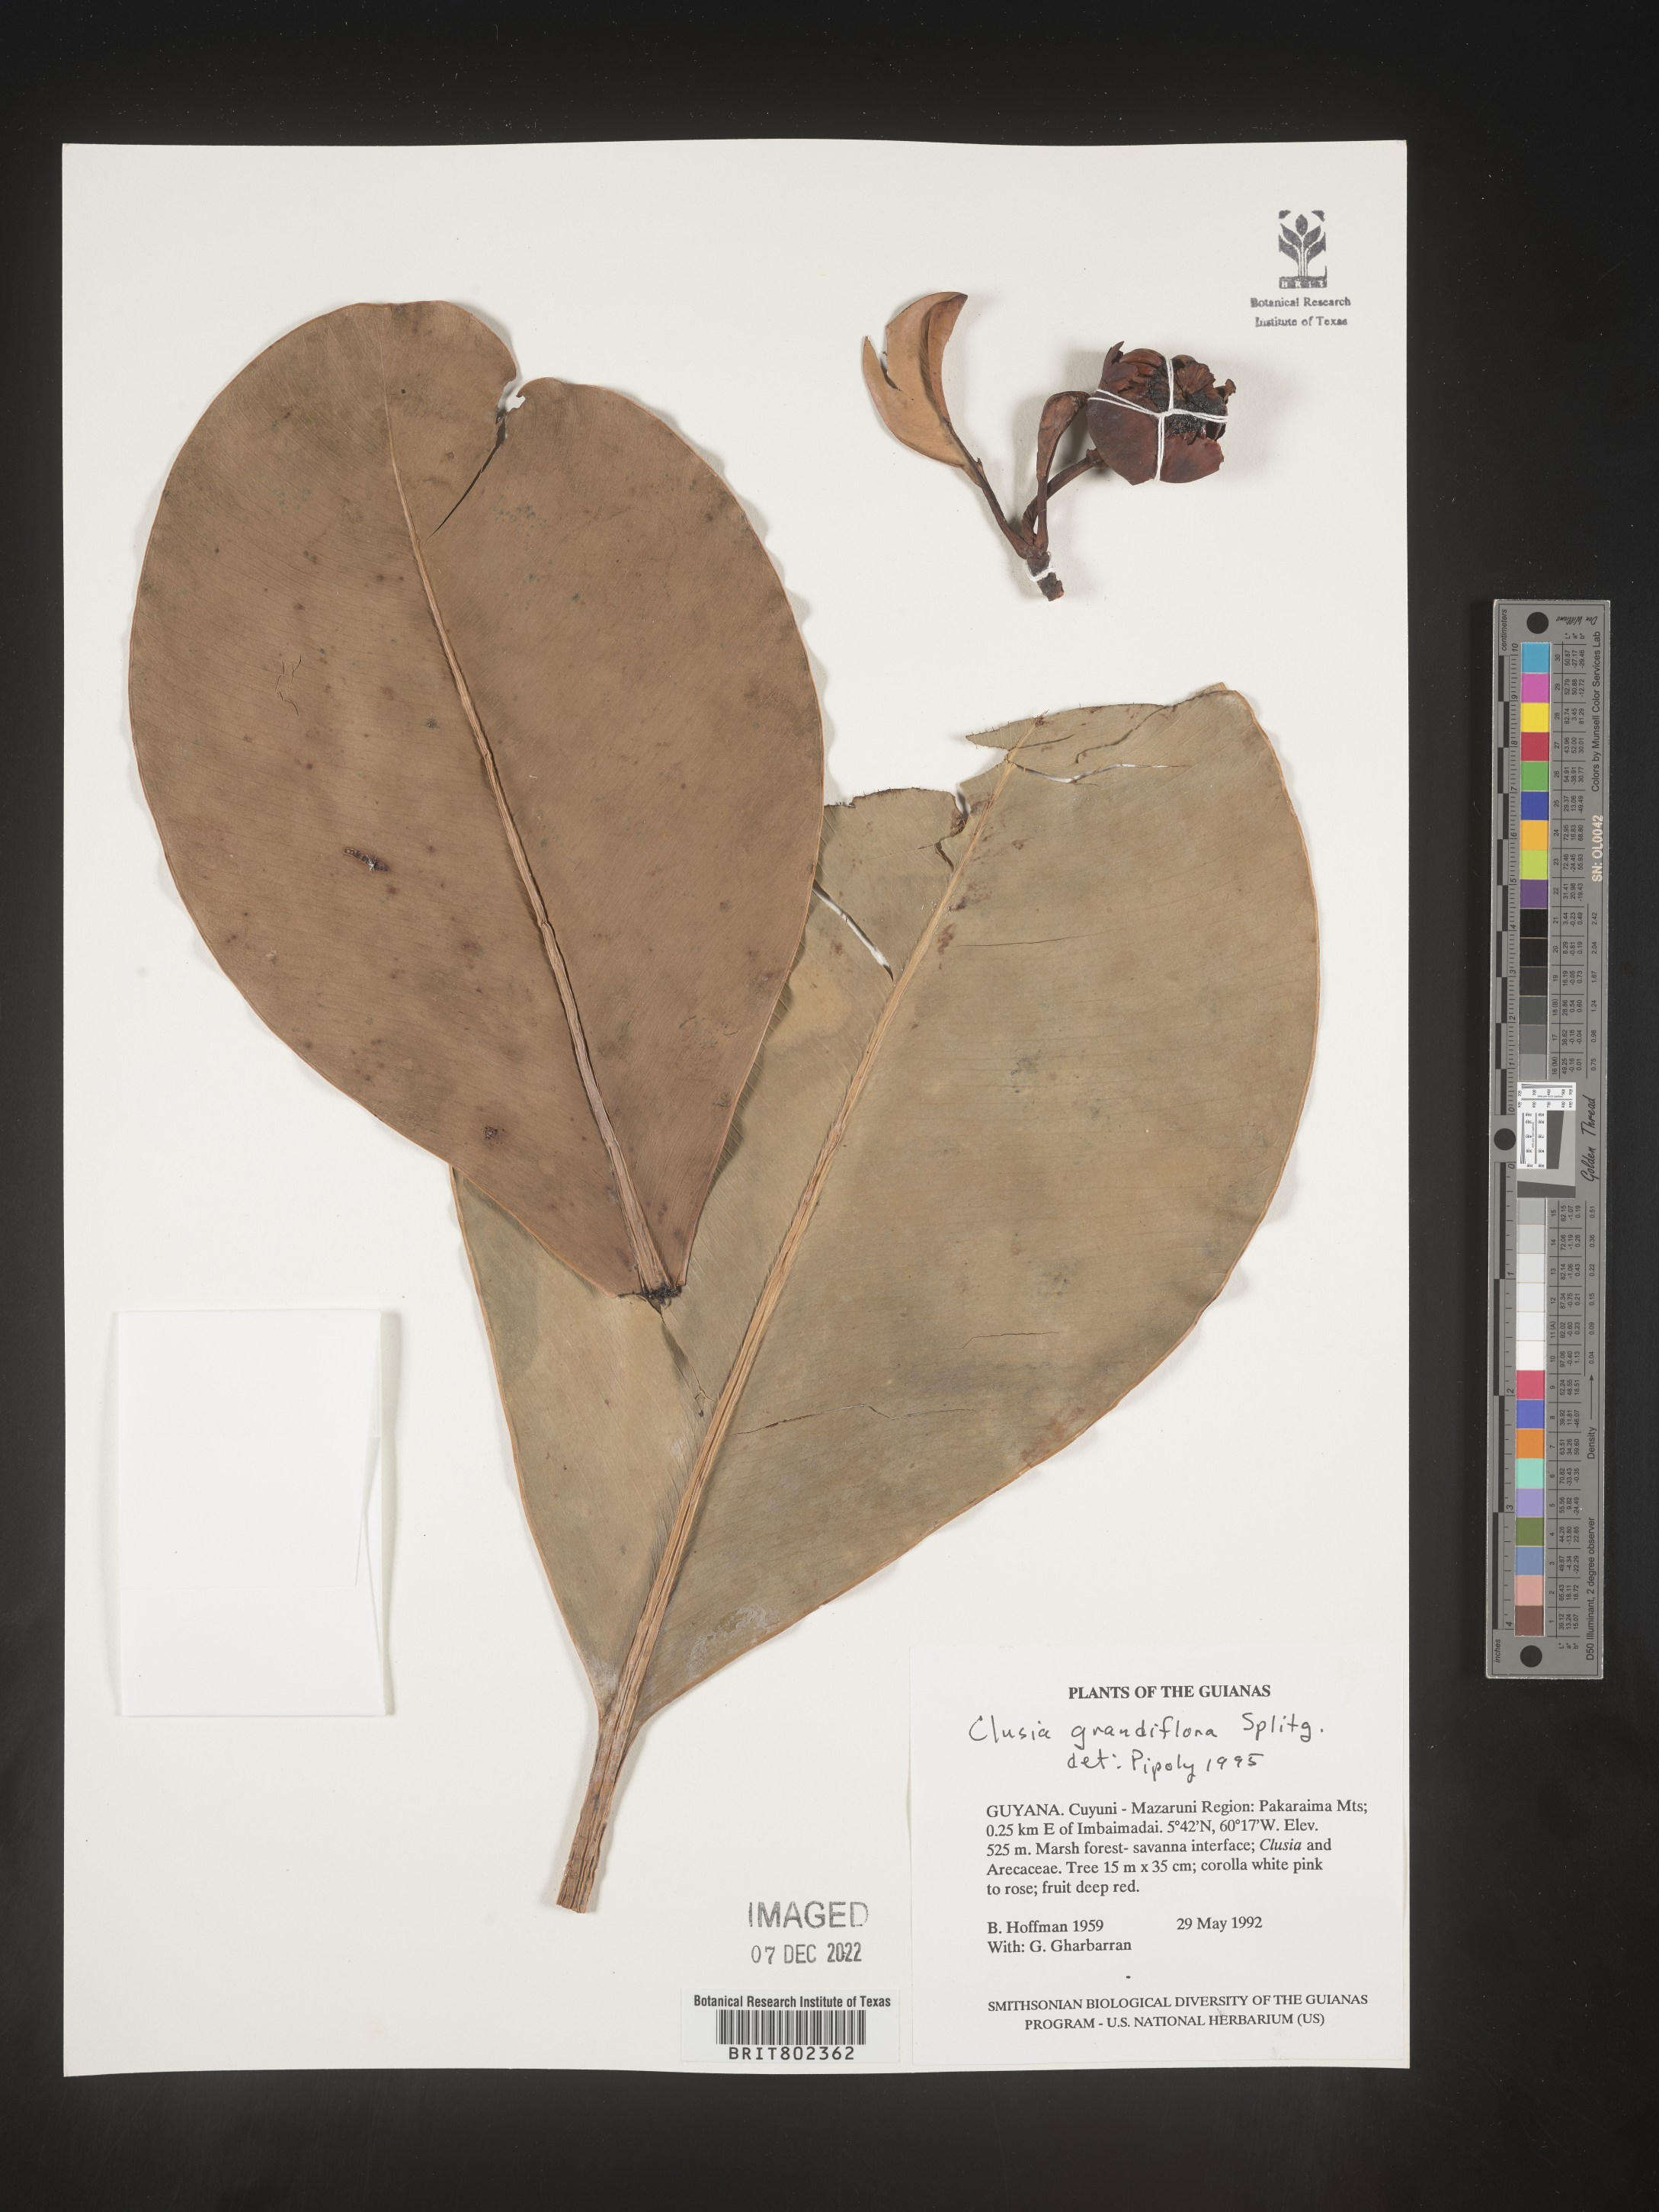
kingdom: Plantae
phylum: Tracheophyta
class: Magnoliopsida
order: Malpighiales
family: Clusiaceae
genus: Clusia
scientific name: Clusia grandiflora
